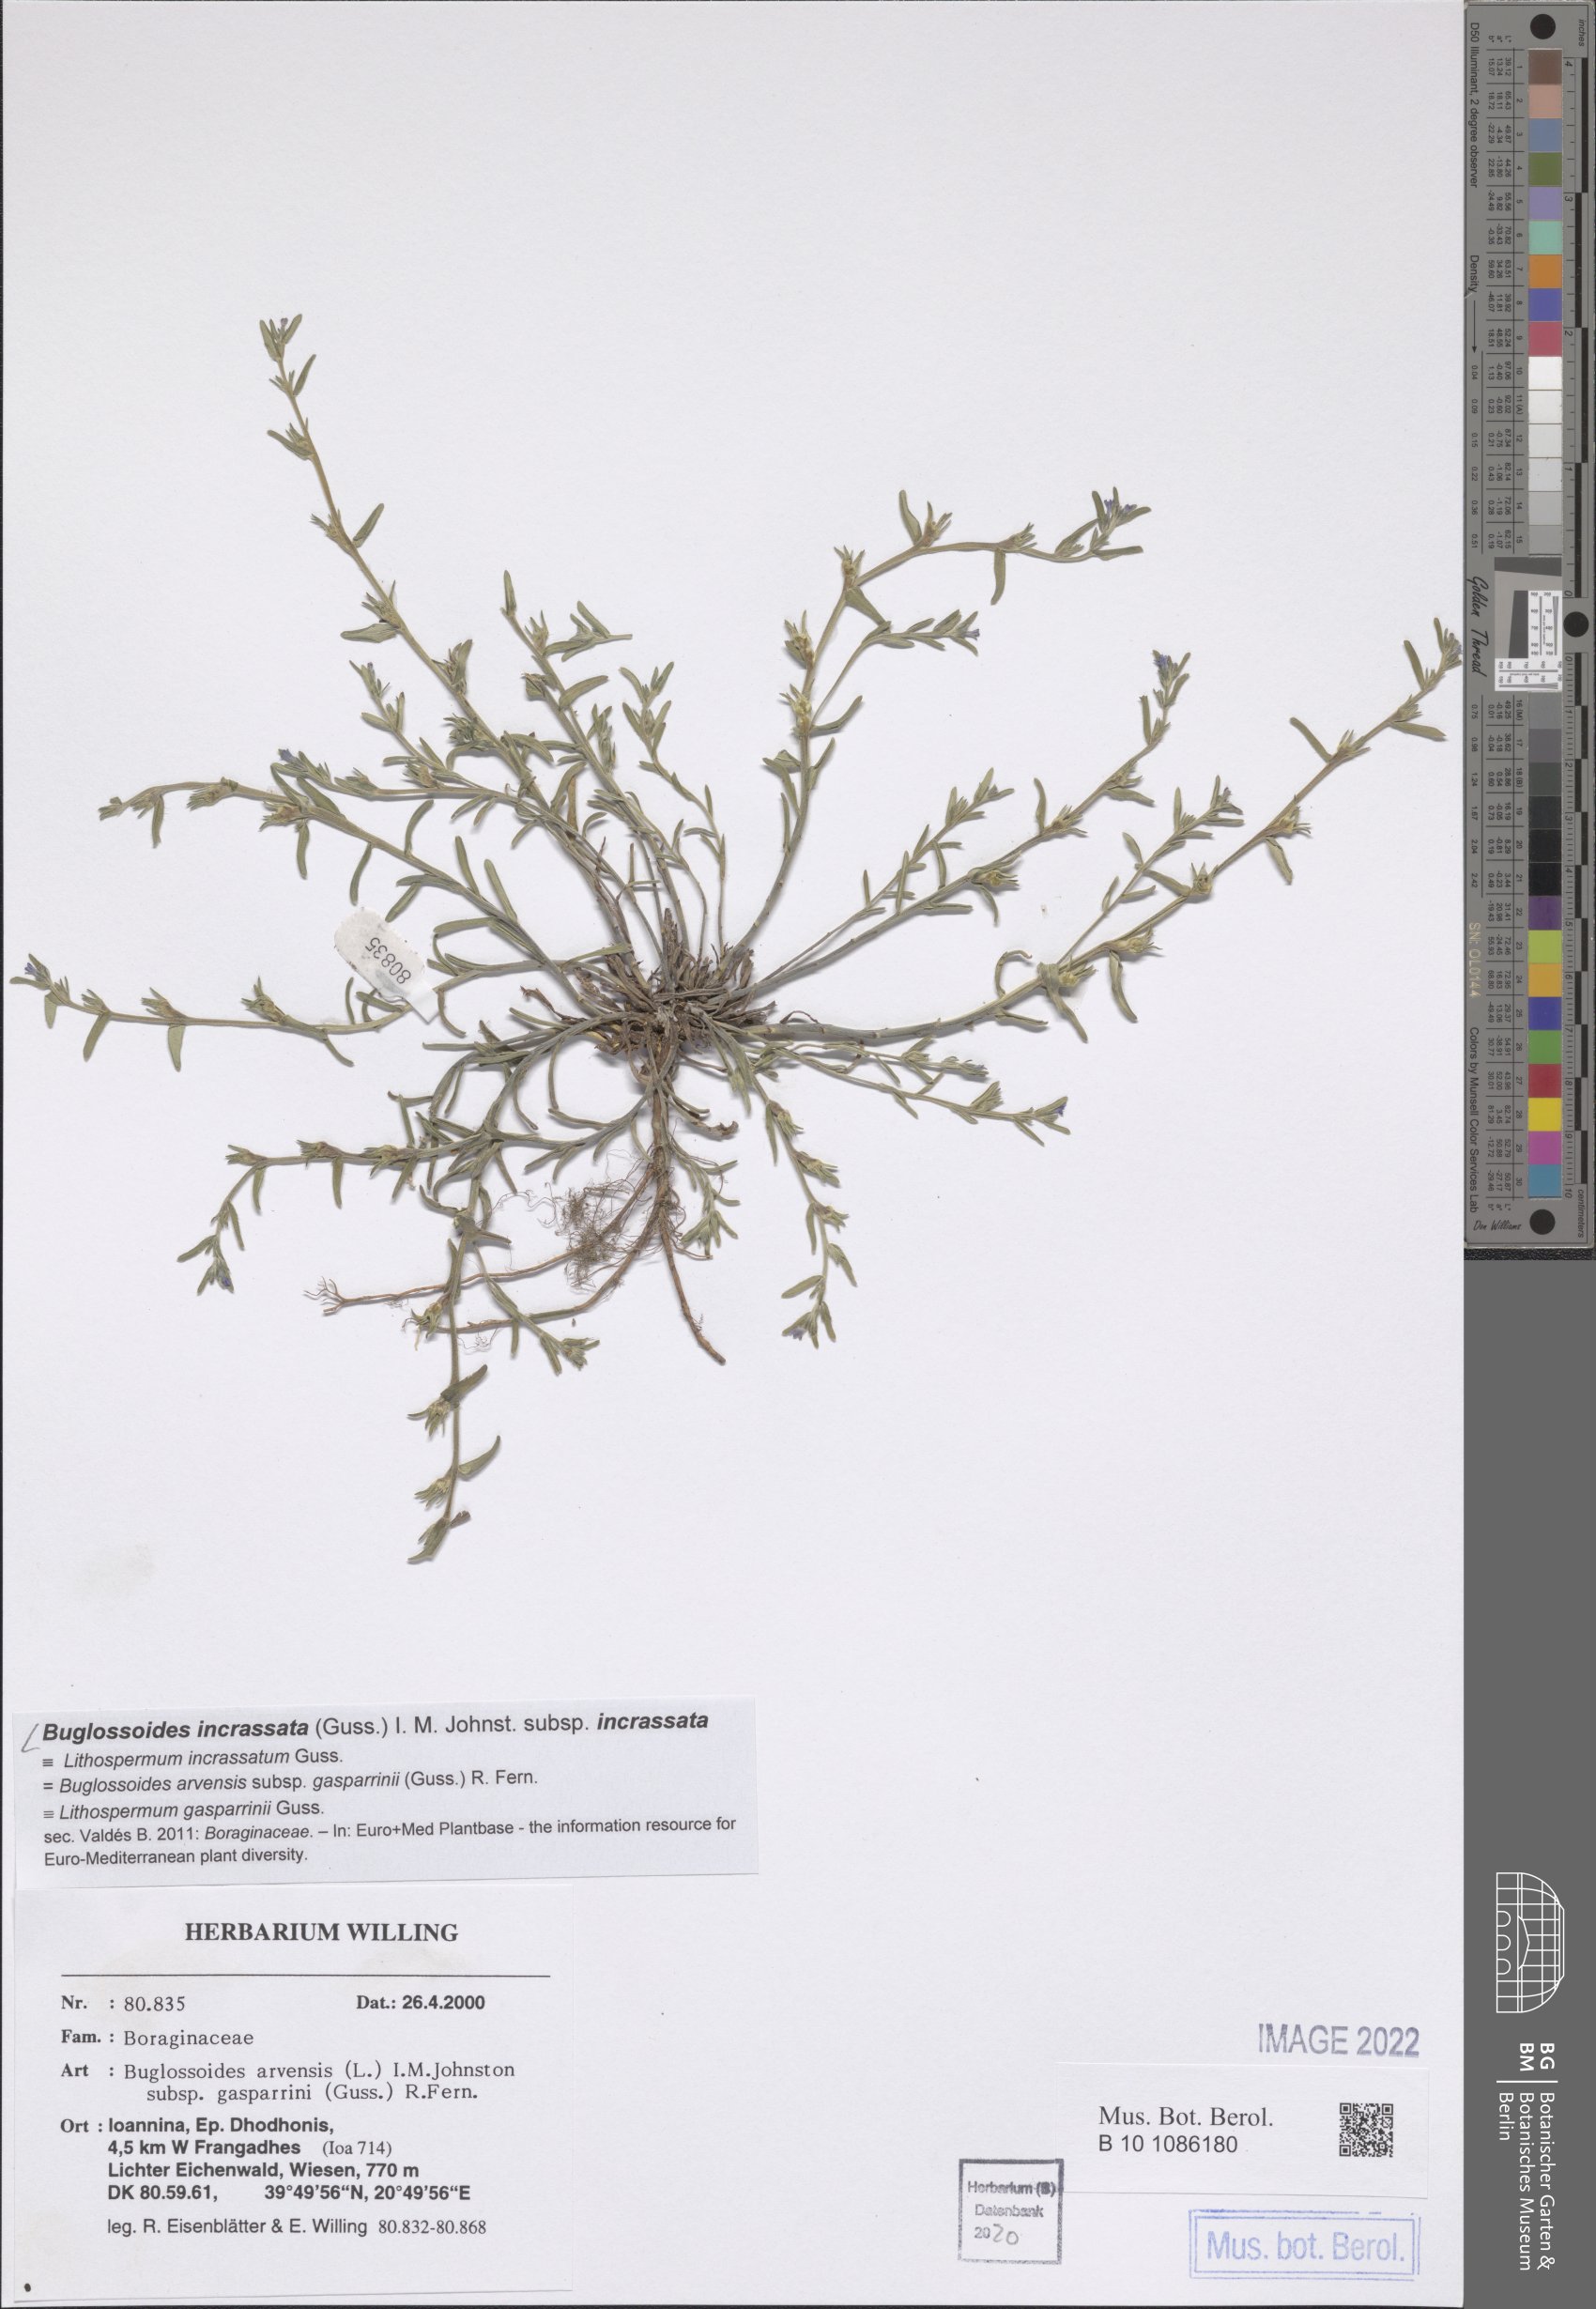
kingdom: Plantae
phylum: Tracheophyta
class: Magnoliopsida
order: Boraginales
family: Boraginaceae
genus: Buglossoides
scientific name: Buglossoides incrassata
